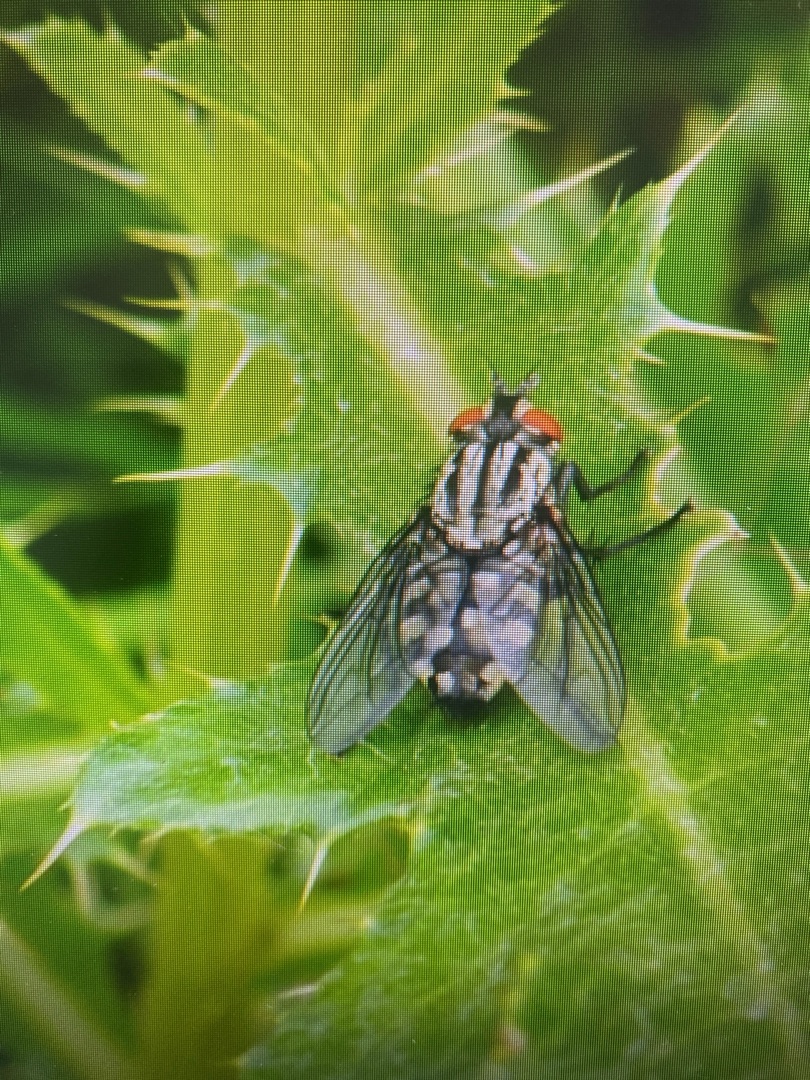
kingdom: Animalia
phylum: Arthropoda
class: Insecta
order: Diptera
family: Sarcophagidae
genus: Sarcophaga
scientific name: Sarcophaga
